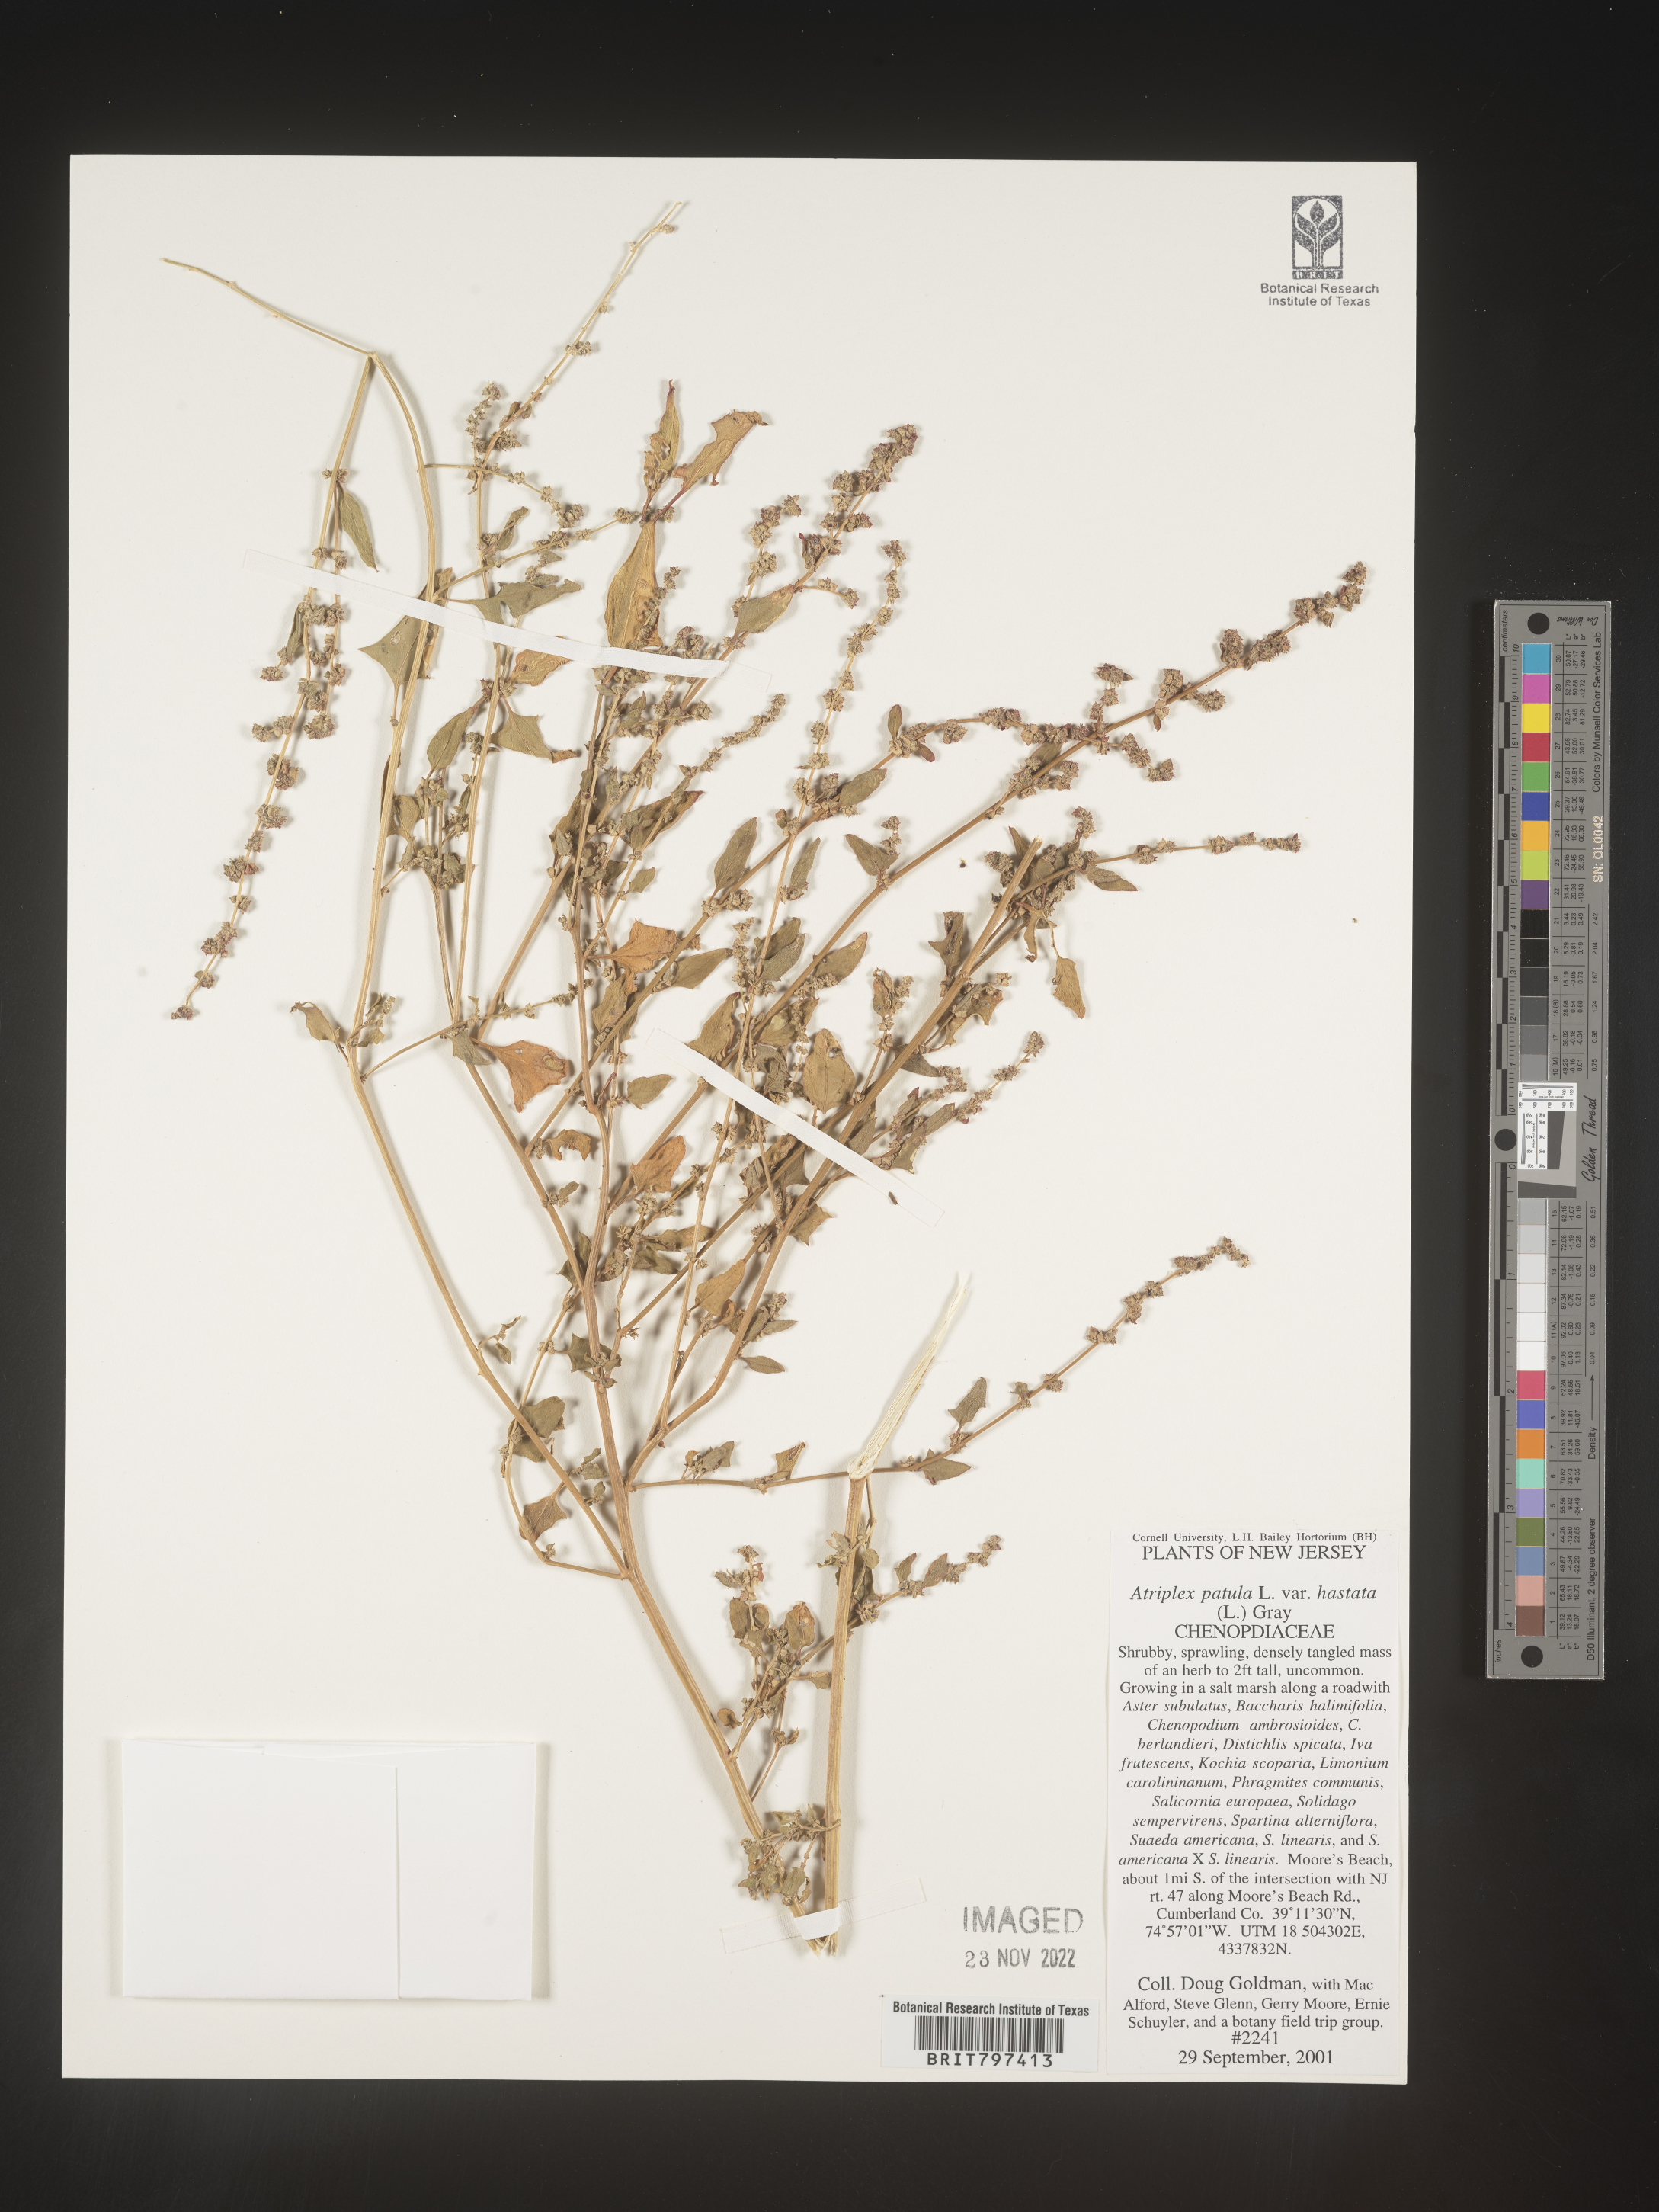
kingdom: Plantae
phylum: Tracheophyta
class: Magnoliopsida
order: Caryophyllales
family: Amaranthaceae
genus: Atriplex
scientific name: Atriplex prostrata
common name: Spear-leaved orache
